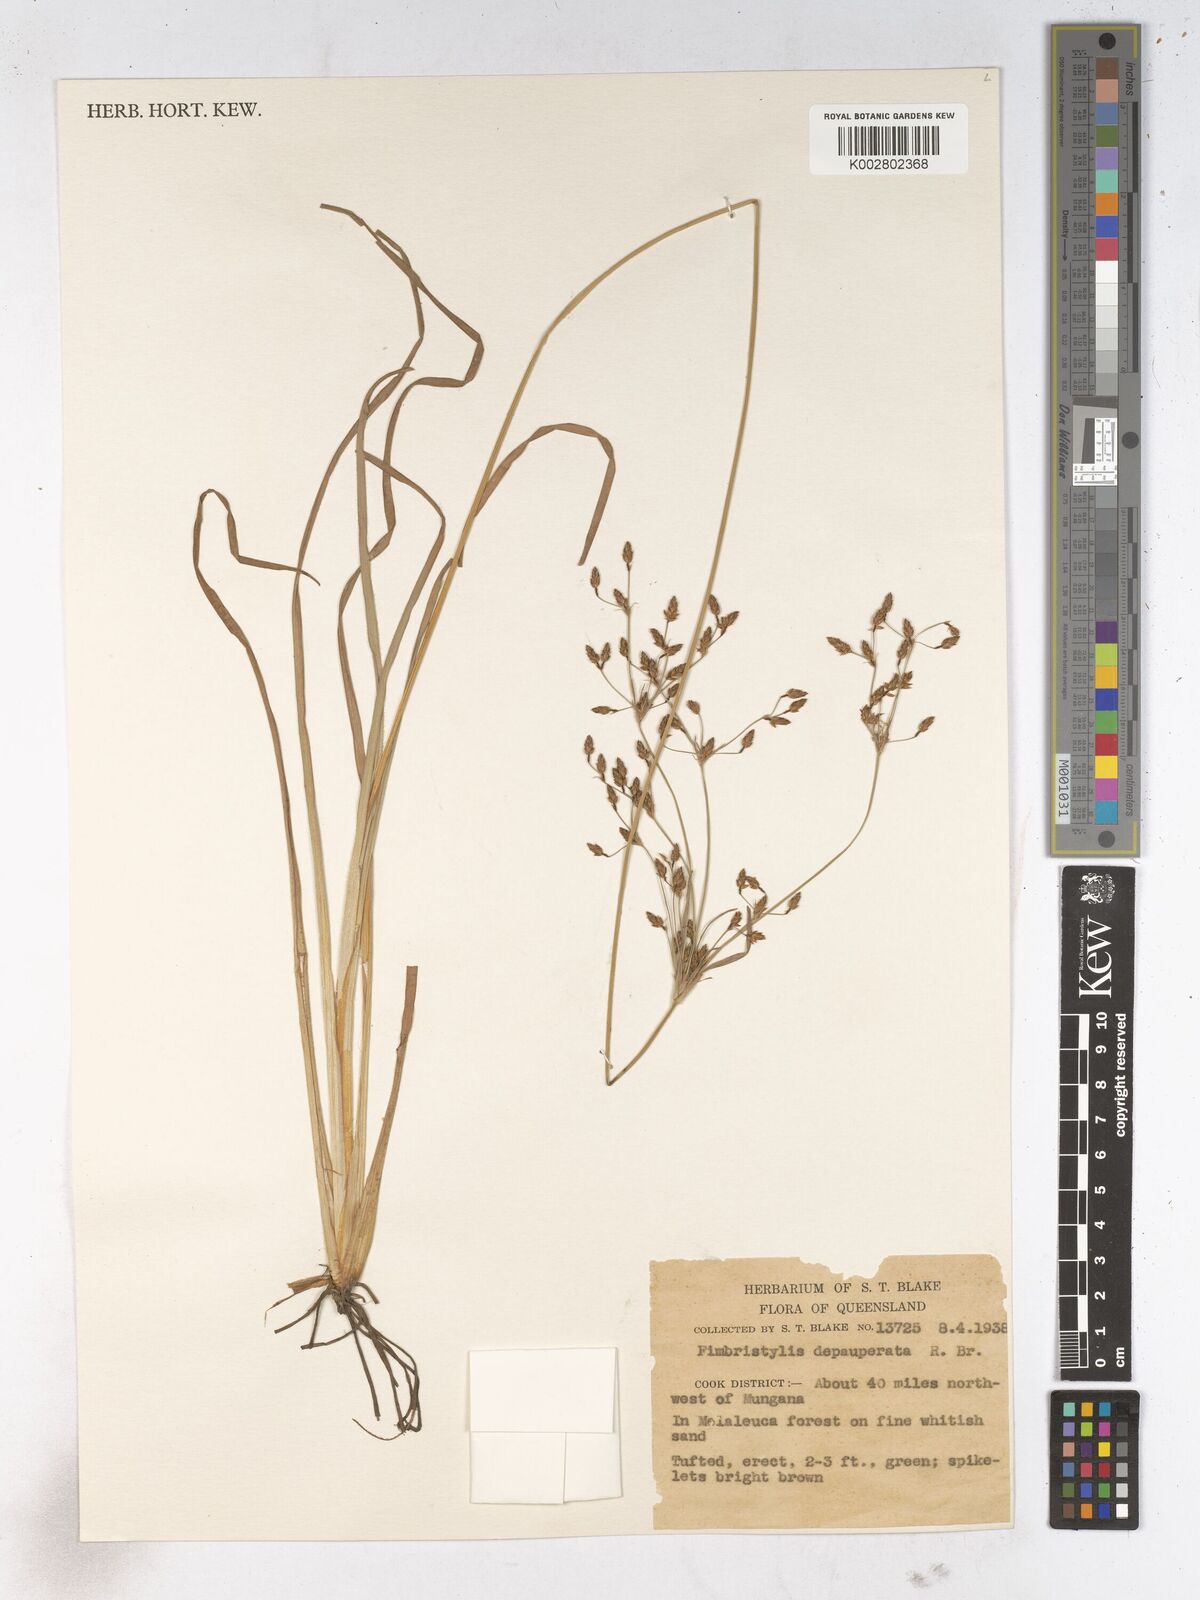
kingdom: Plantae
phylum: Tracheophyta
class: Liliopsida
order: Poales
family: Cyperaceae
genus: Fimbristylis
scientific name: Fimbristylis dichotoma
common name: Forked fimbry
